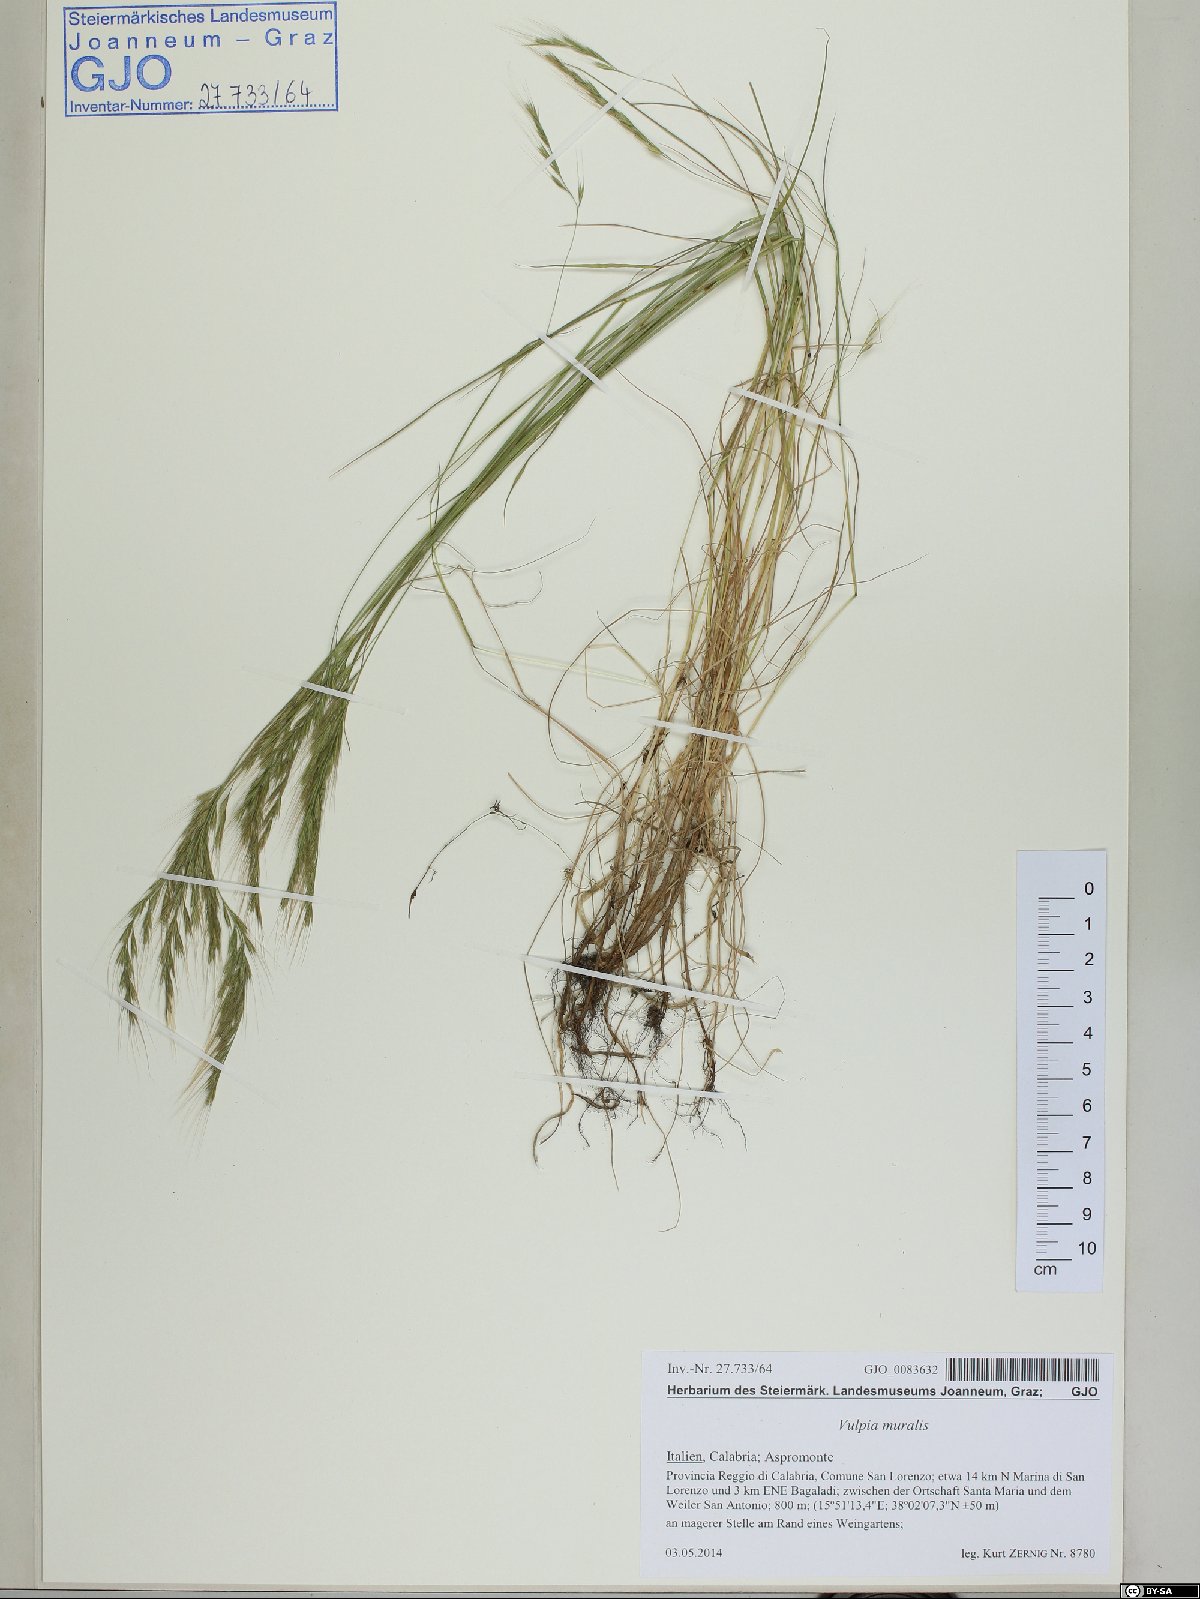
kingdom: Plantae
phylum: Tracheophyta
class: Liliopsida
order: Poales
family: Poaceae
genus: Festuca
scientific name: Festuca muralis
